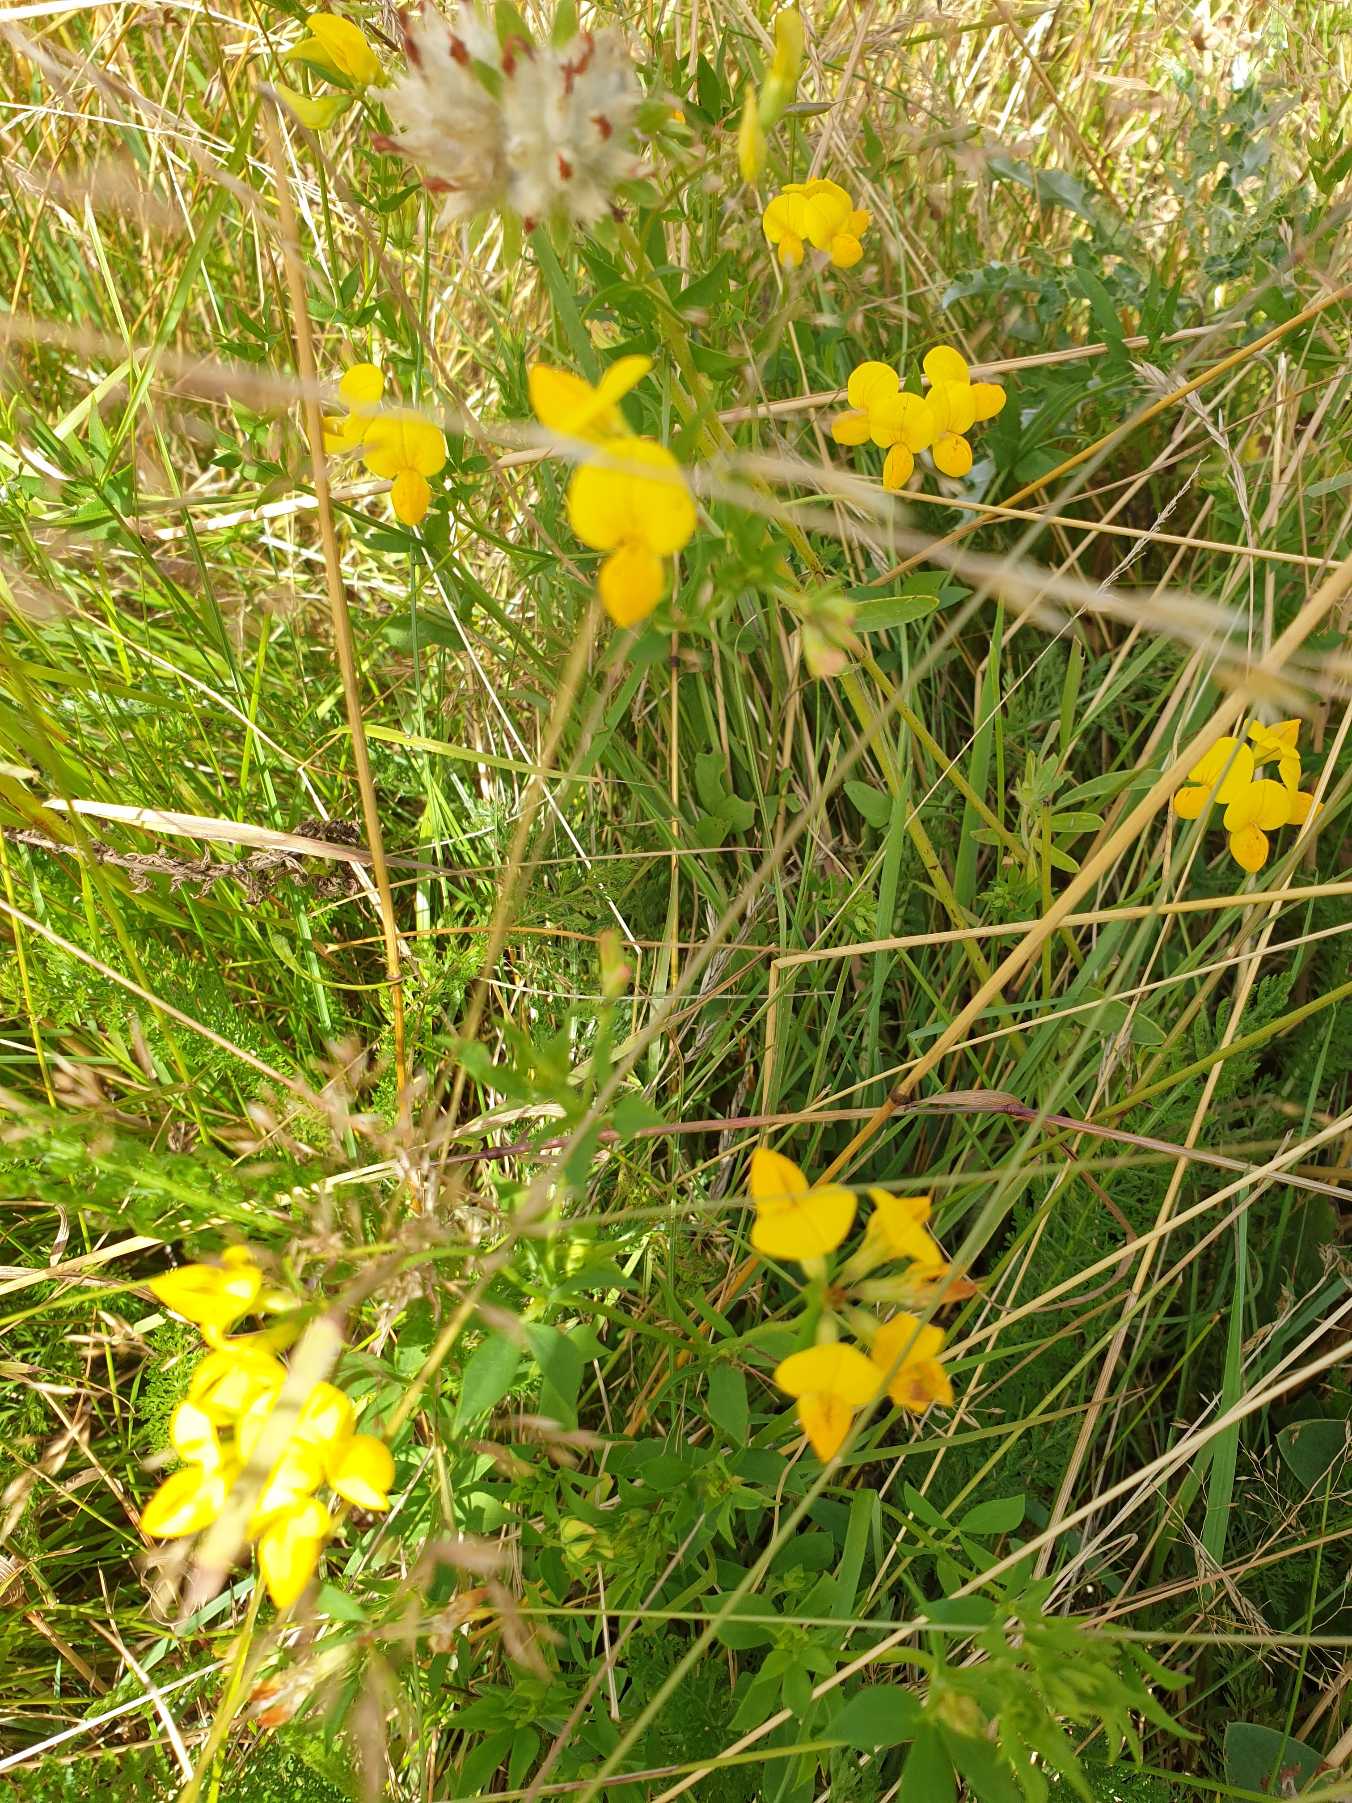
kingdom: Plantae
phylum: Tracheophyta
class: Magnoliopsida
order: Fabales
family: Fabaceae
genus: Lotus
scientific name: Lotus corniculatus
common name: Almindelig kællingetand
